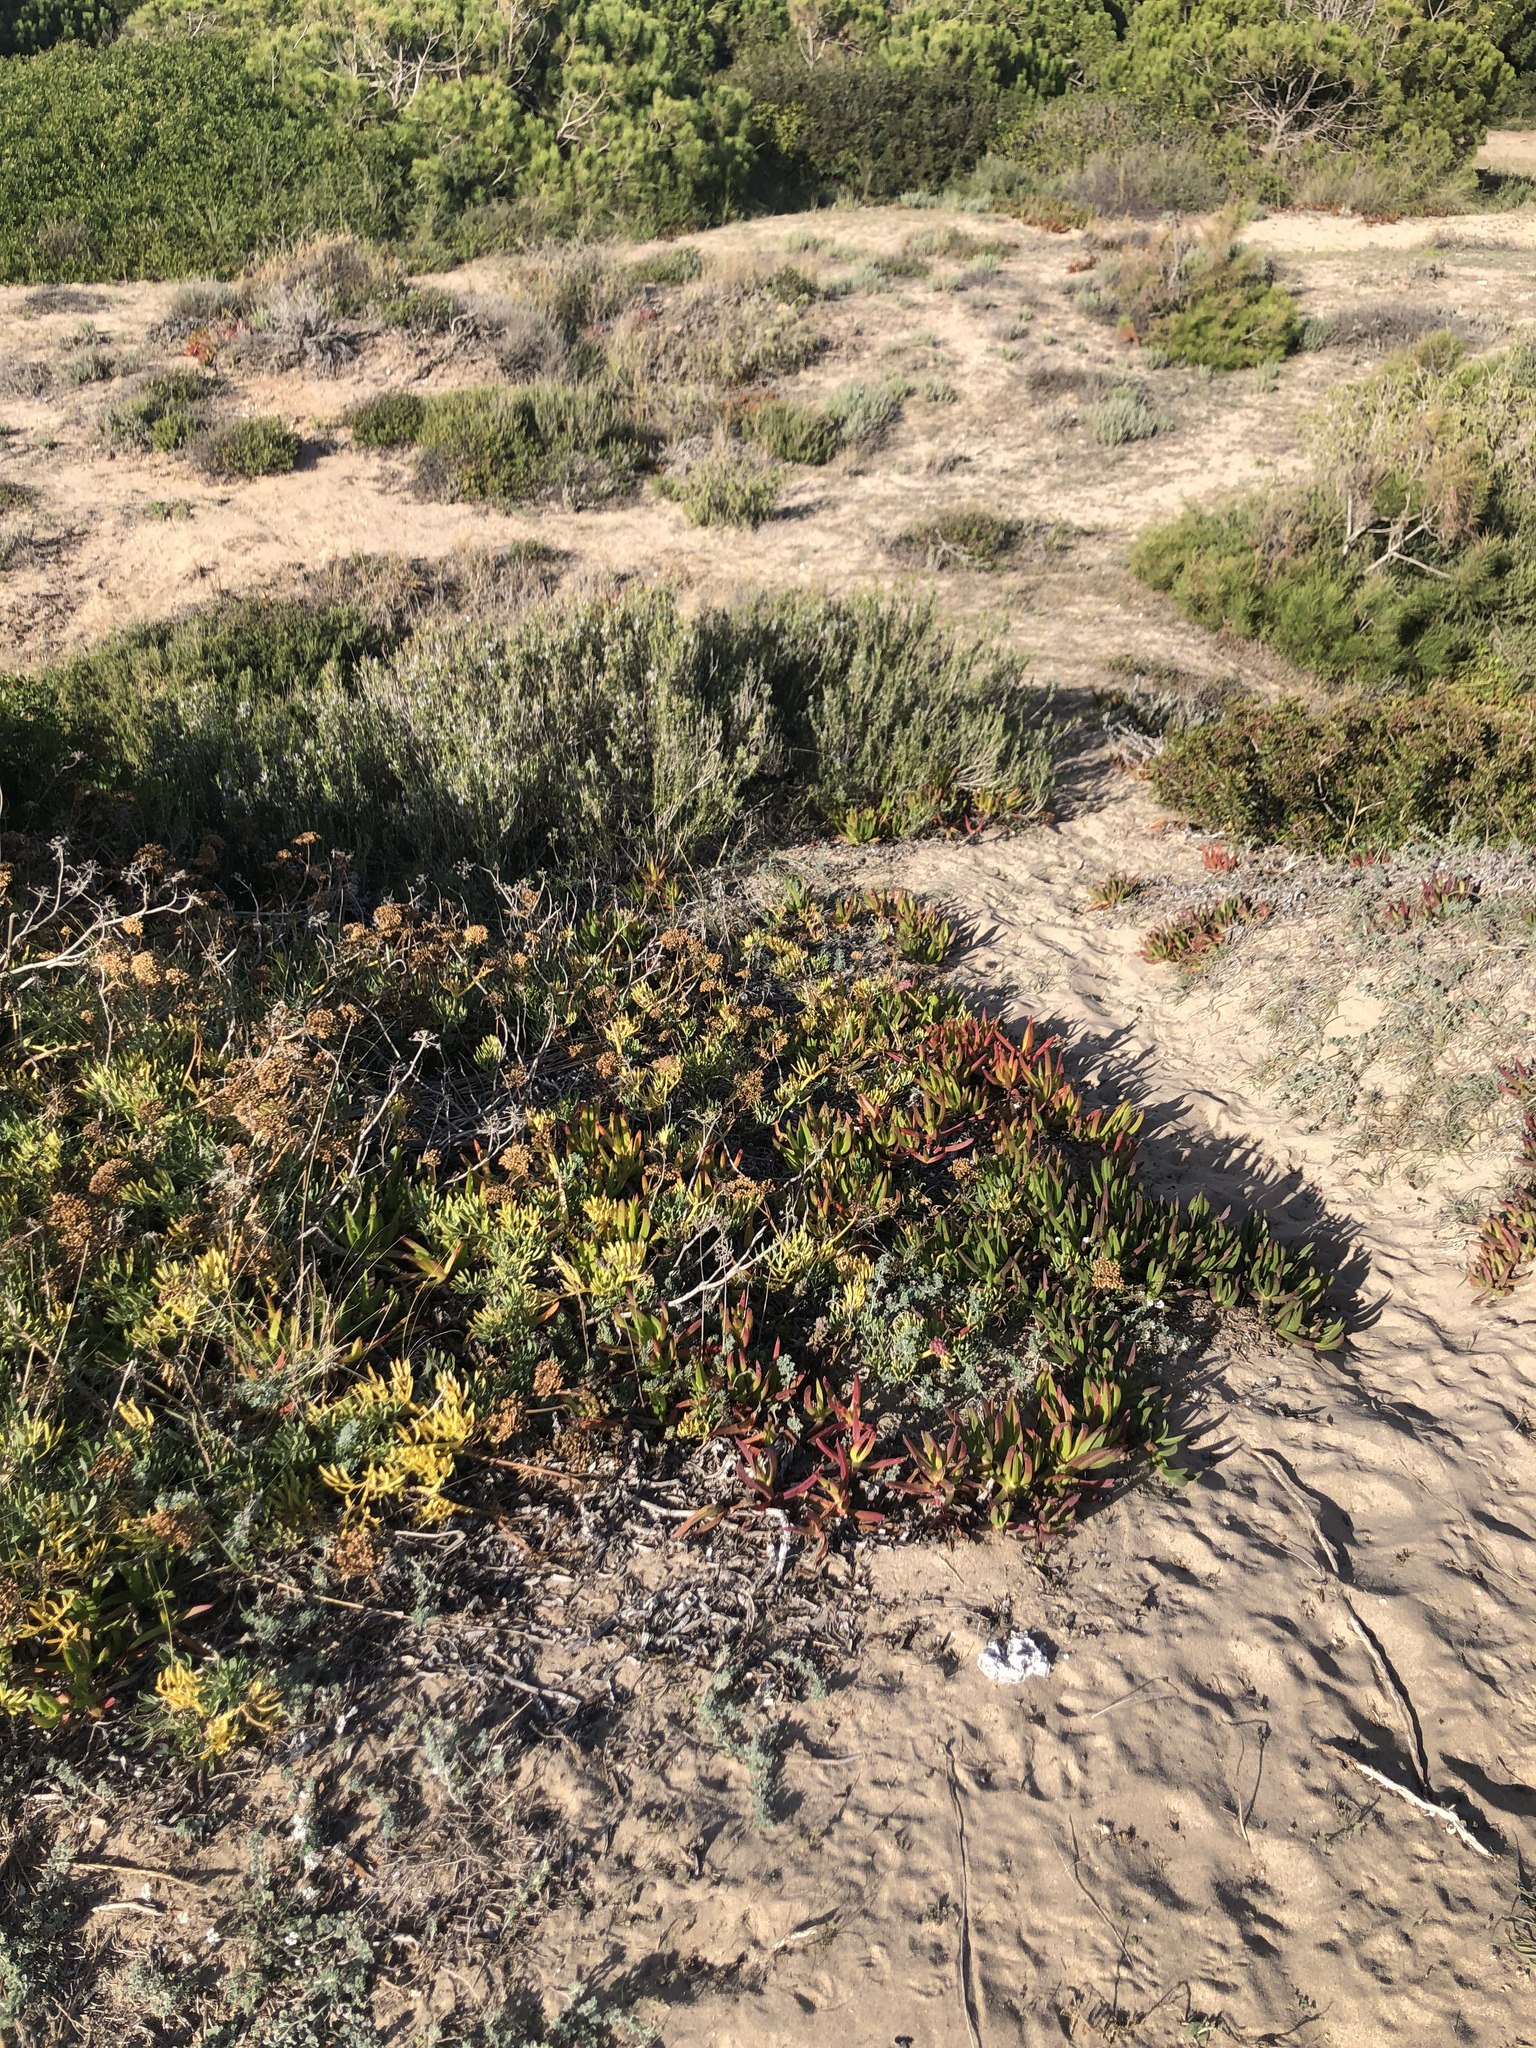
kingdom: Plantae
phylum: Tracheophyta
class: Magnoliopsida
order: Caryophyllales
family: Aizoaceae
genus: Carpobrotus
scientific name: Carpobrotus edulis
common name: Hottentot-fig
